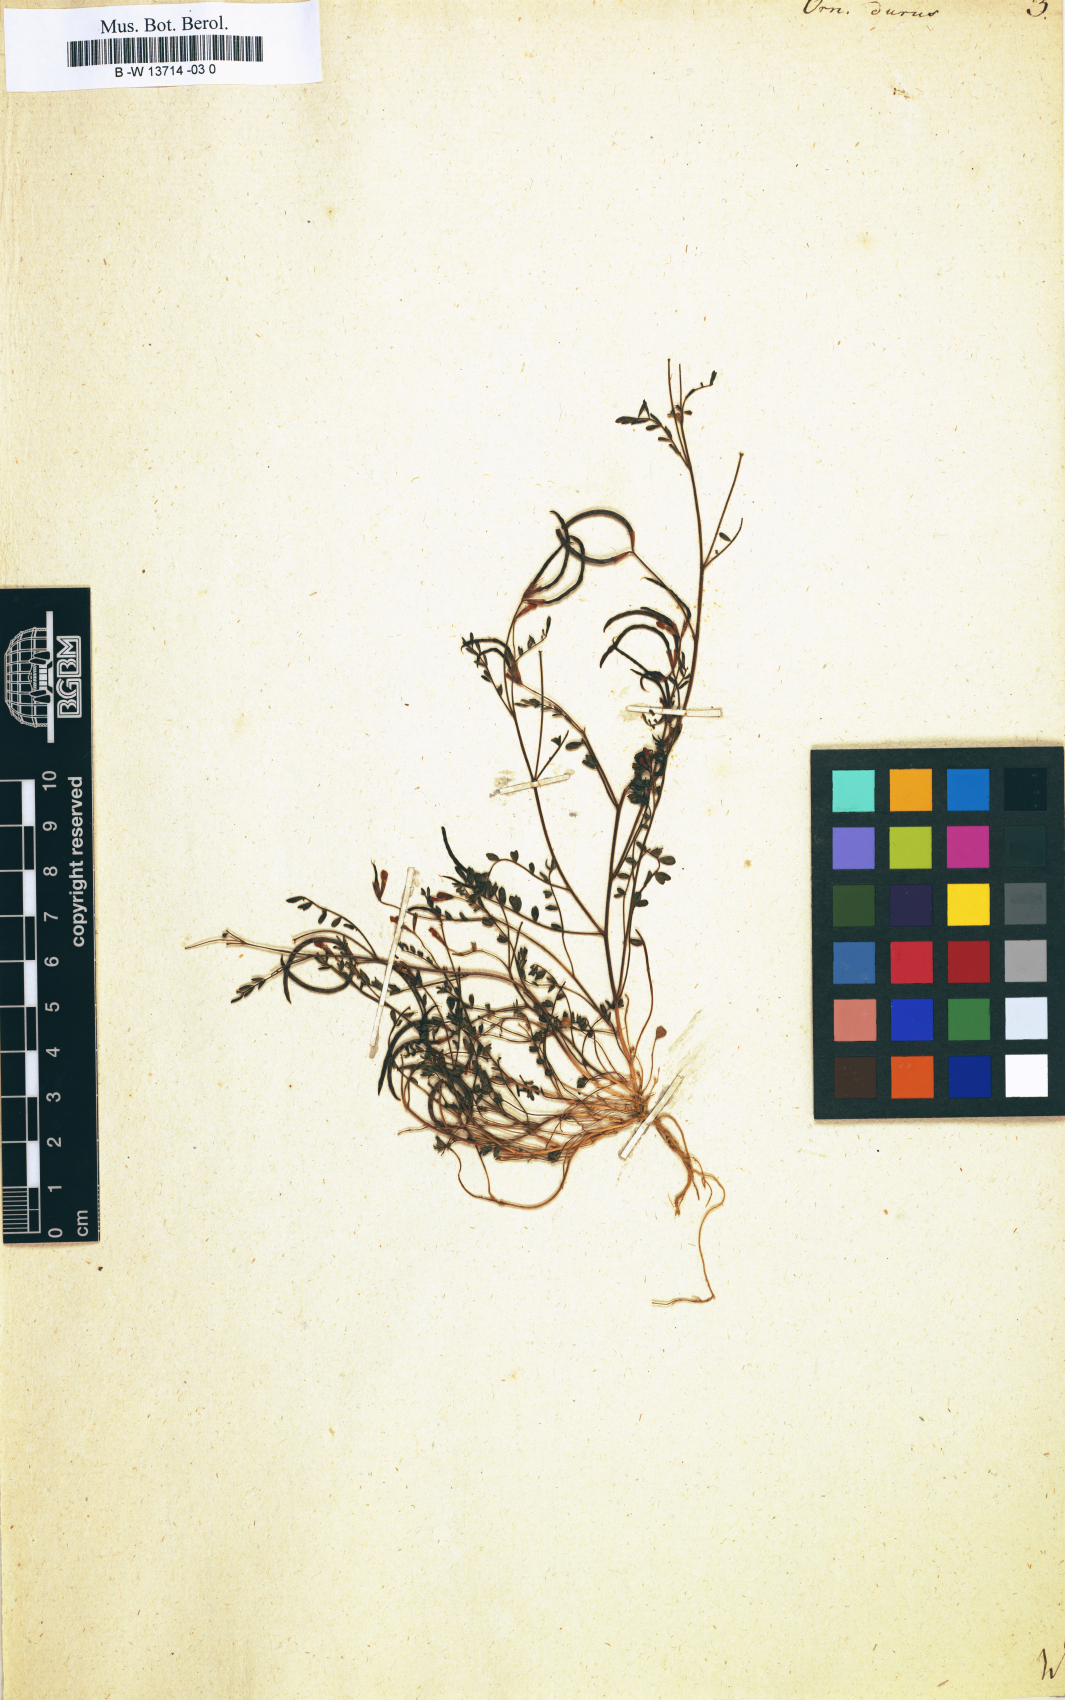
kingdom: Plantae
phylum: Tracheophyta
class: Magnoliopsida
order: Fabales
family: Fabaceae
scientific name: Fabaceae
